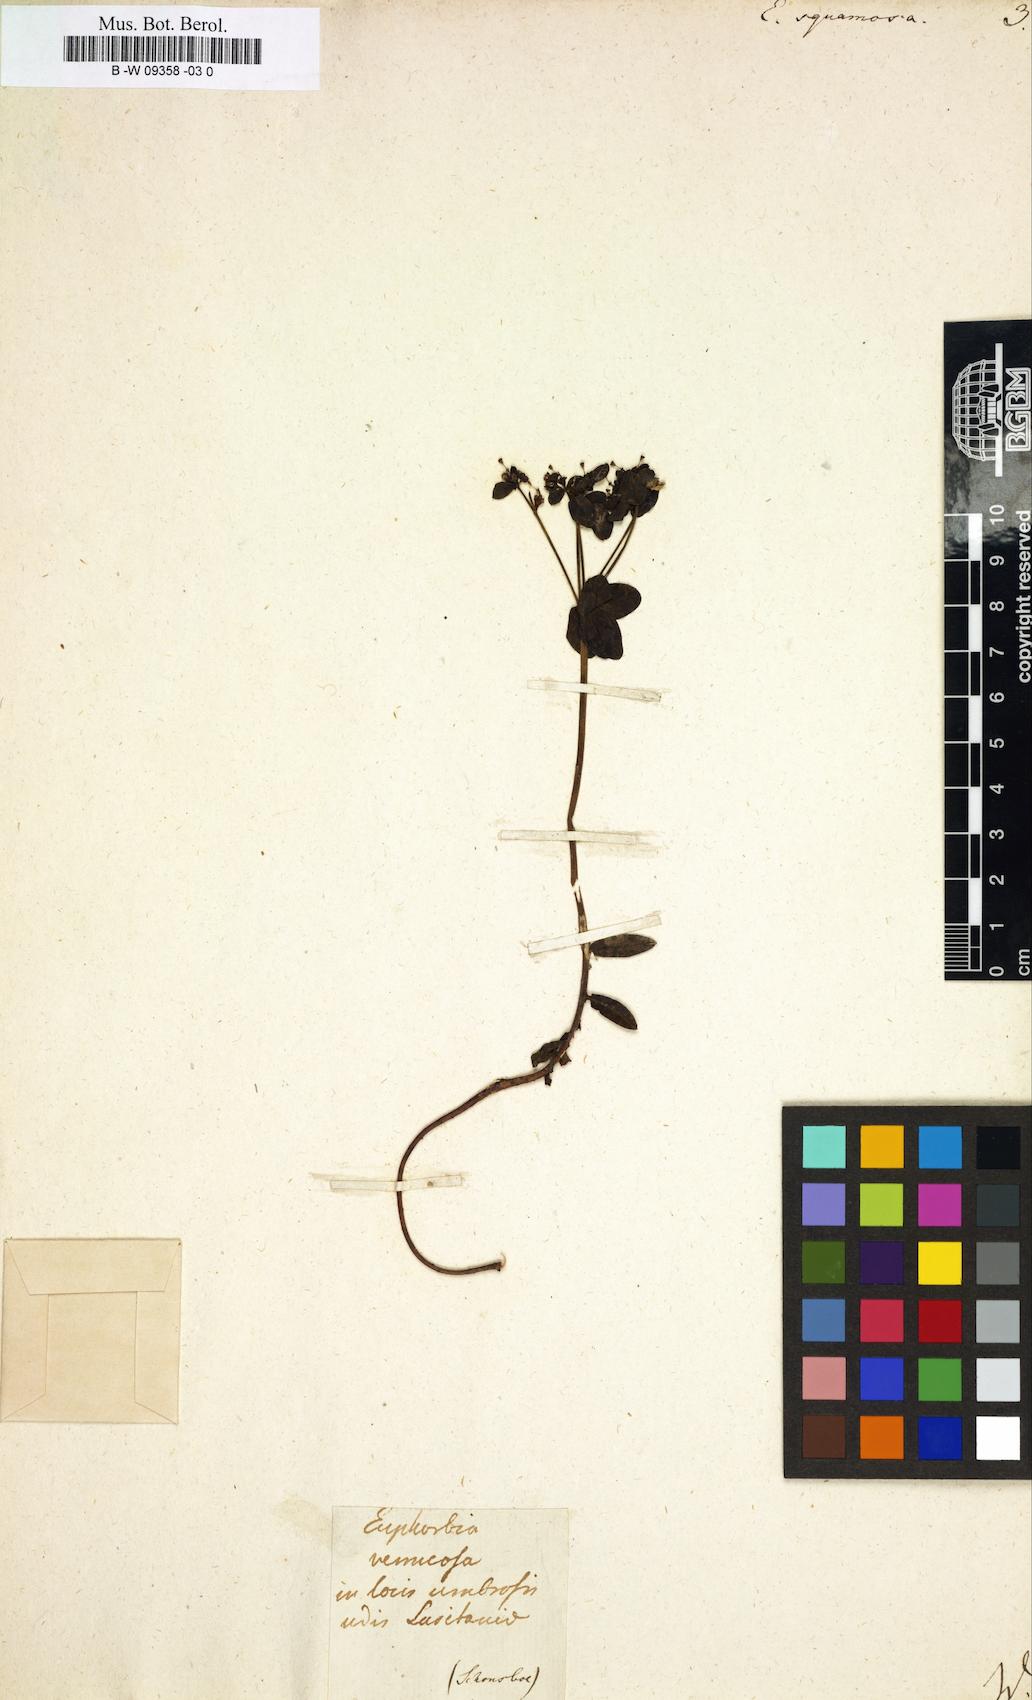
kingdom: Plantae
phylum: Tracheophyta
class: Magnoliopsida
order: Malpighiales
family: Euphorbiaceae
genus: Euphorbia
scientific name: Euphorbia squamosa
